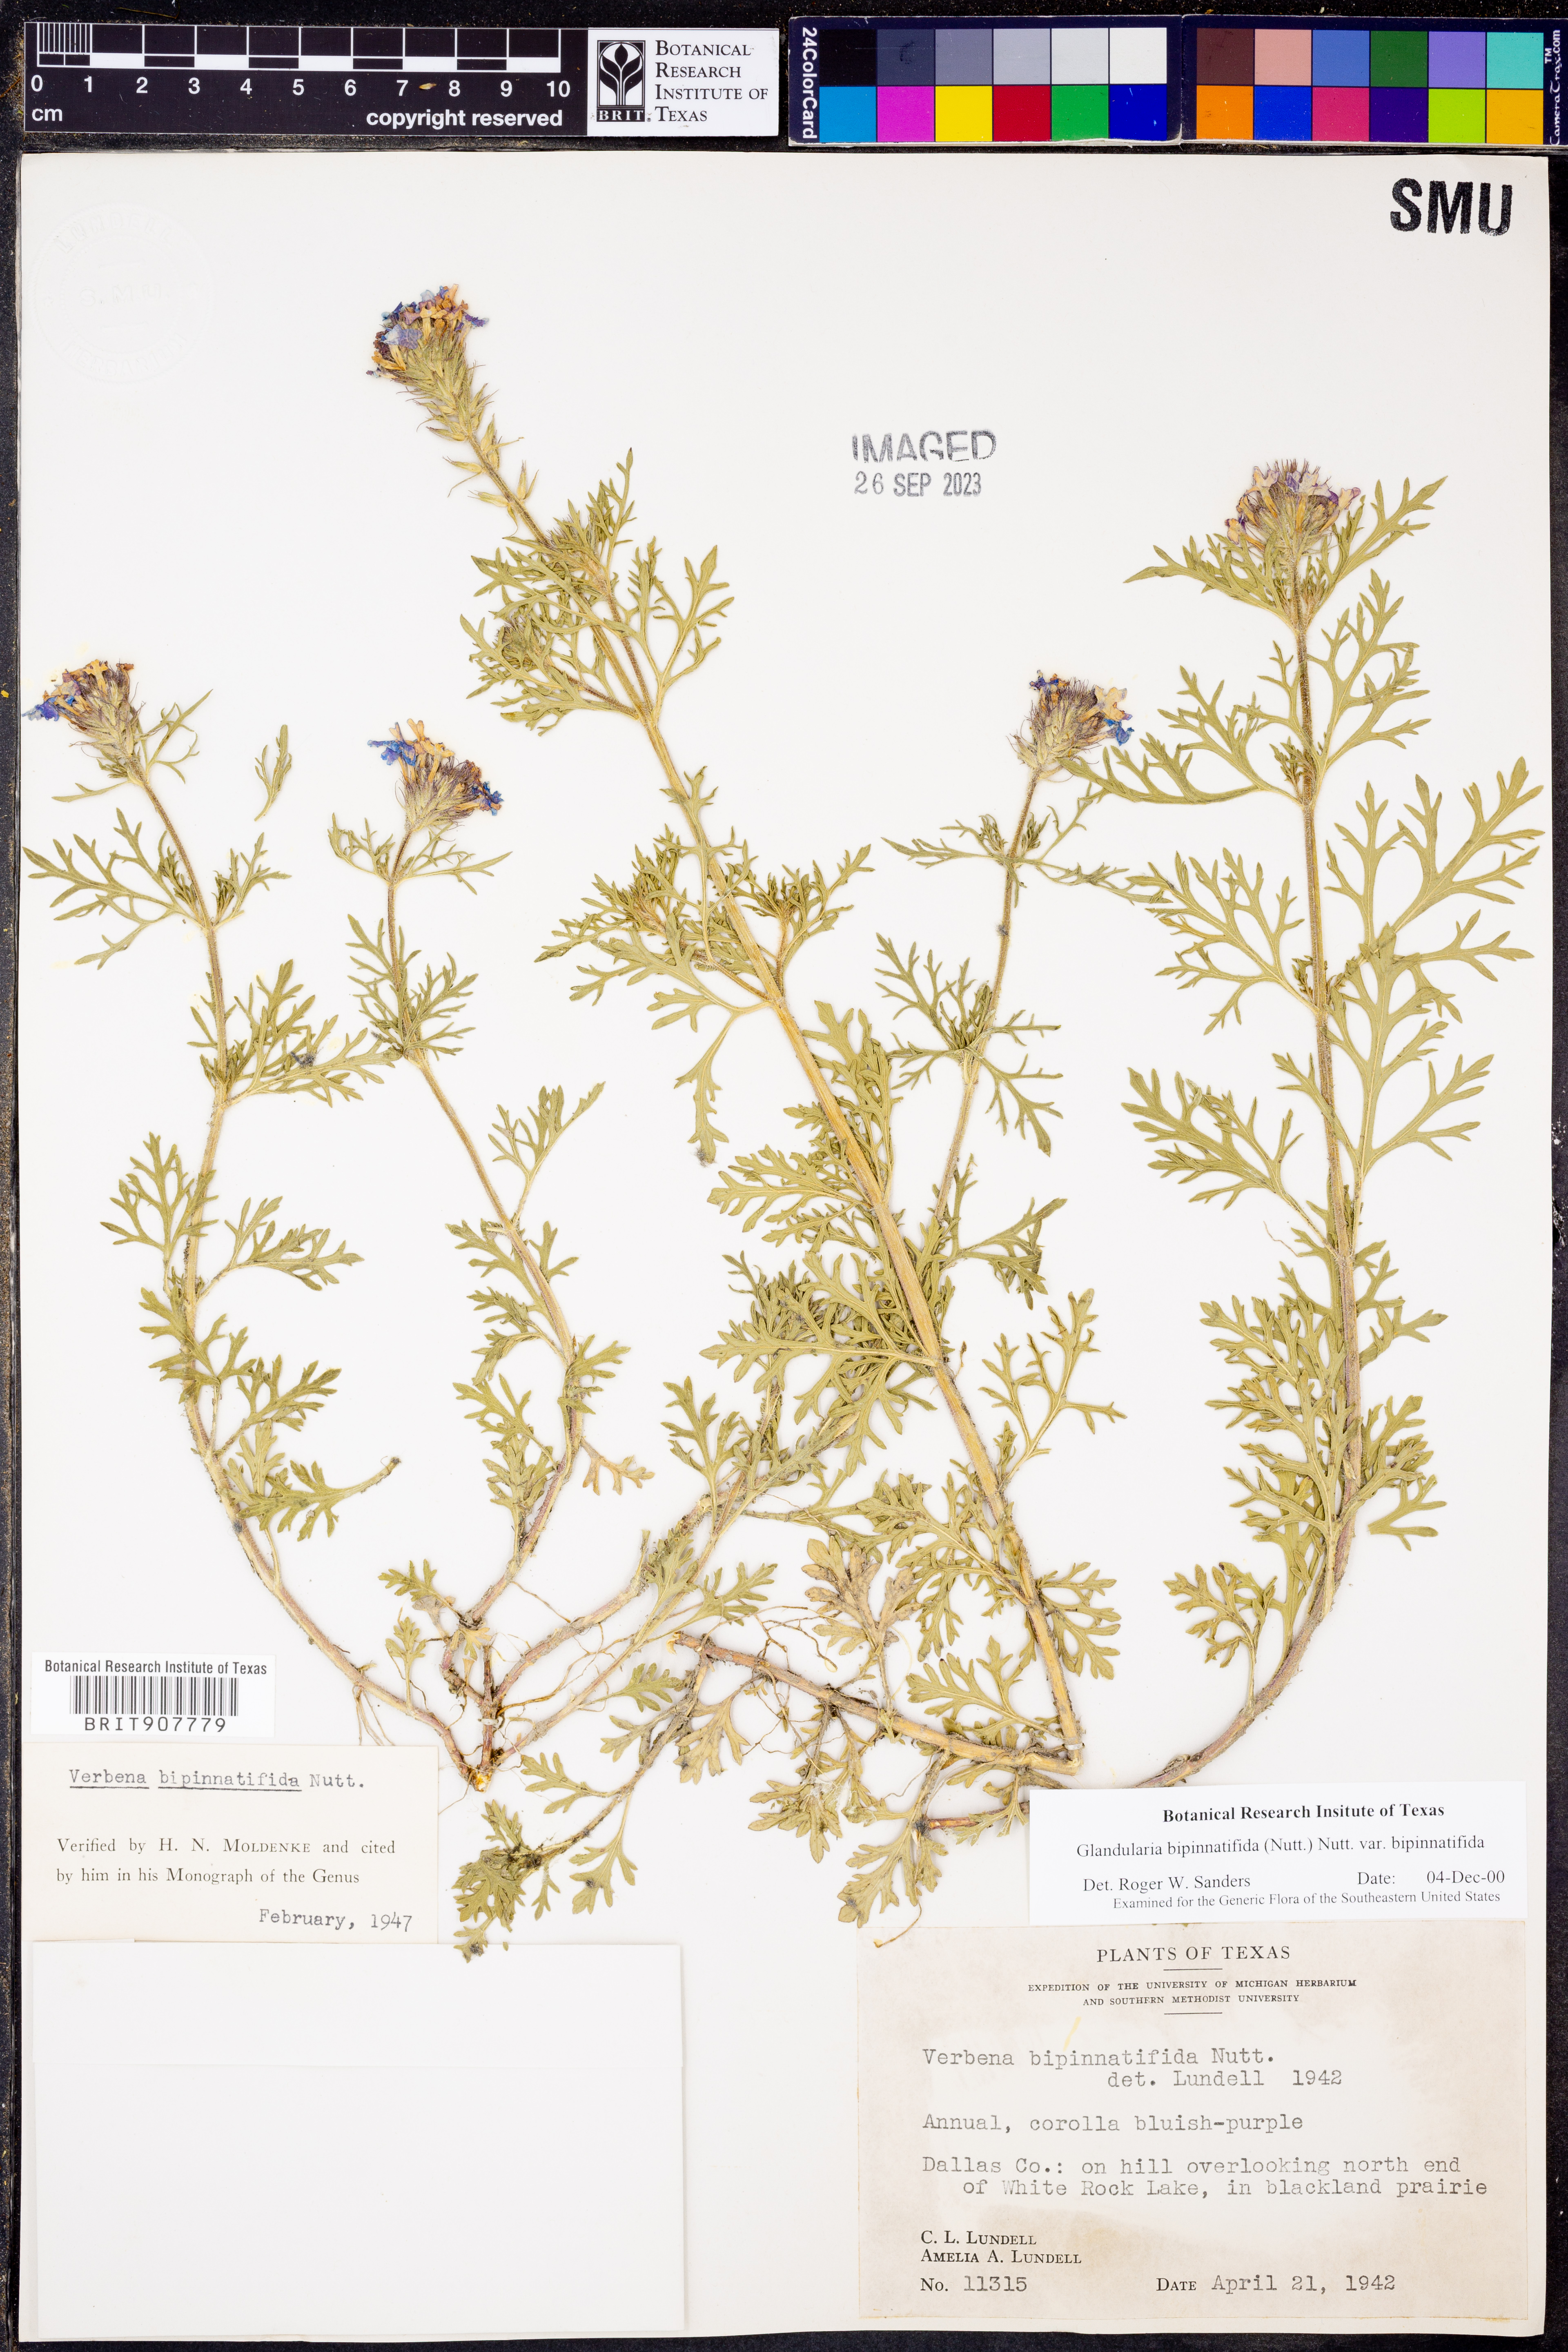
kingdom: Plantae
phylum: Tracheophyta
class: Magnoliopsida
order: Lamiales
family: Verbenaceae
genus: Verbena
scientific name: Verbena bipinnatifida
